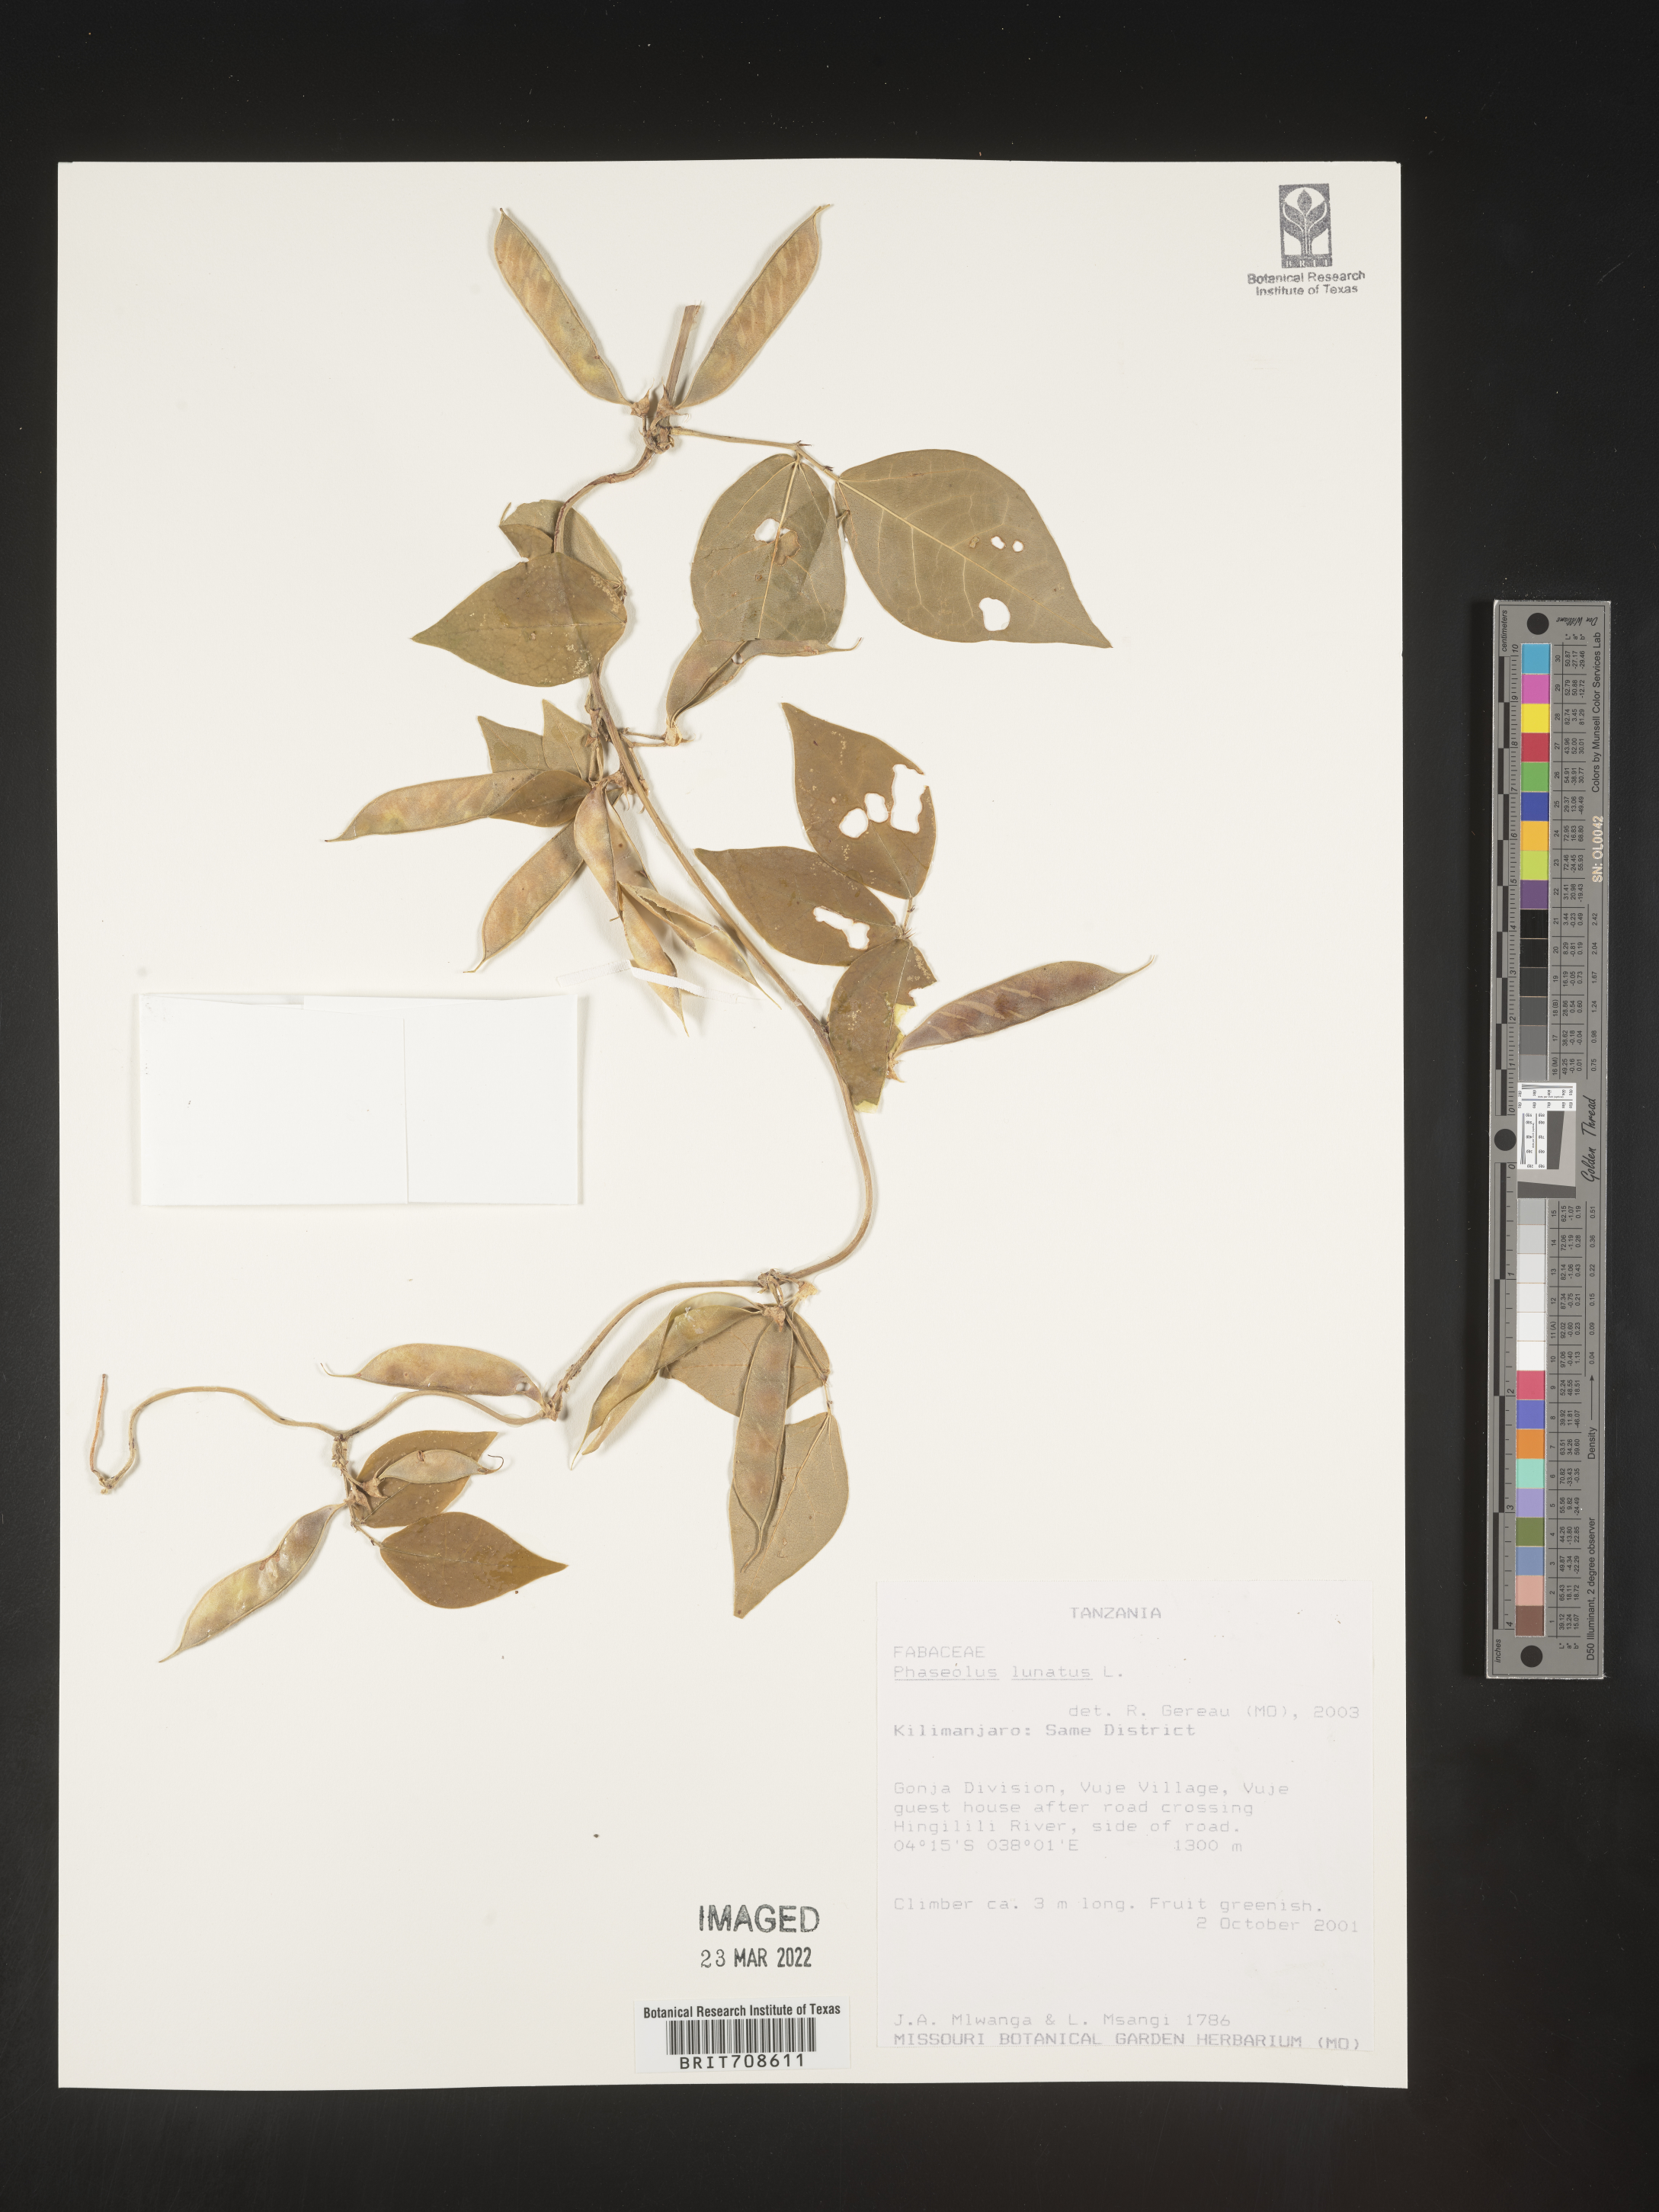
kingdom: Plantae
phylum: Tracheophyta
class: Magnoliopsida
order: Fabales
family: Fabaceae
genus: Phaseolus
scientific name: Phaseolus
